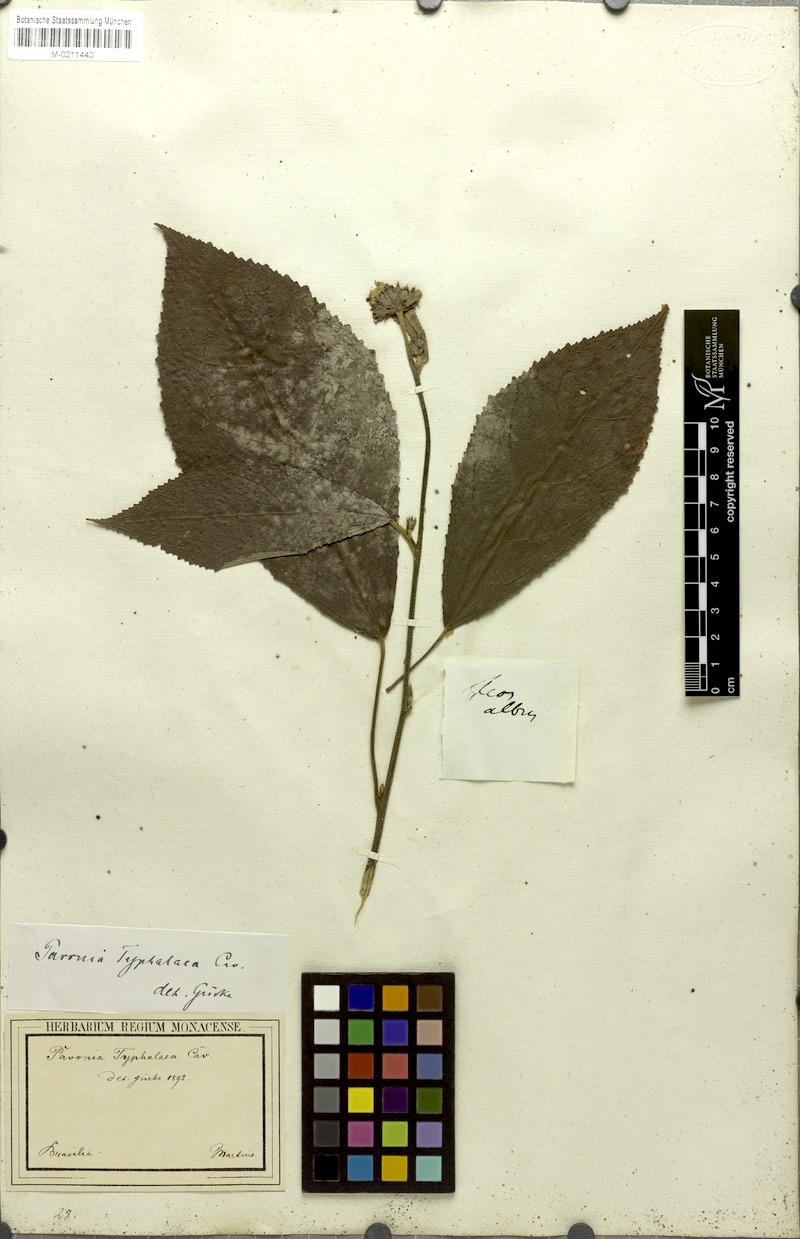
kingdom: Plantae
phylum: Tracheophyta
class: Magnoliopsida
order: Malvales
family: Malvaceae
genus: Pavonia
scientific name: Pavonia fruticosa
